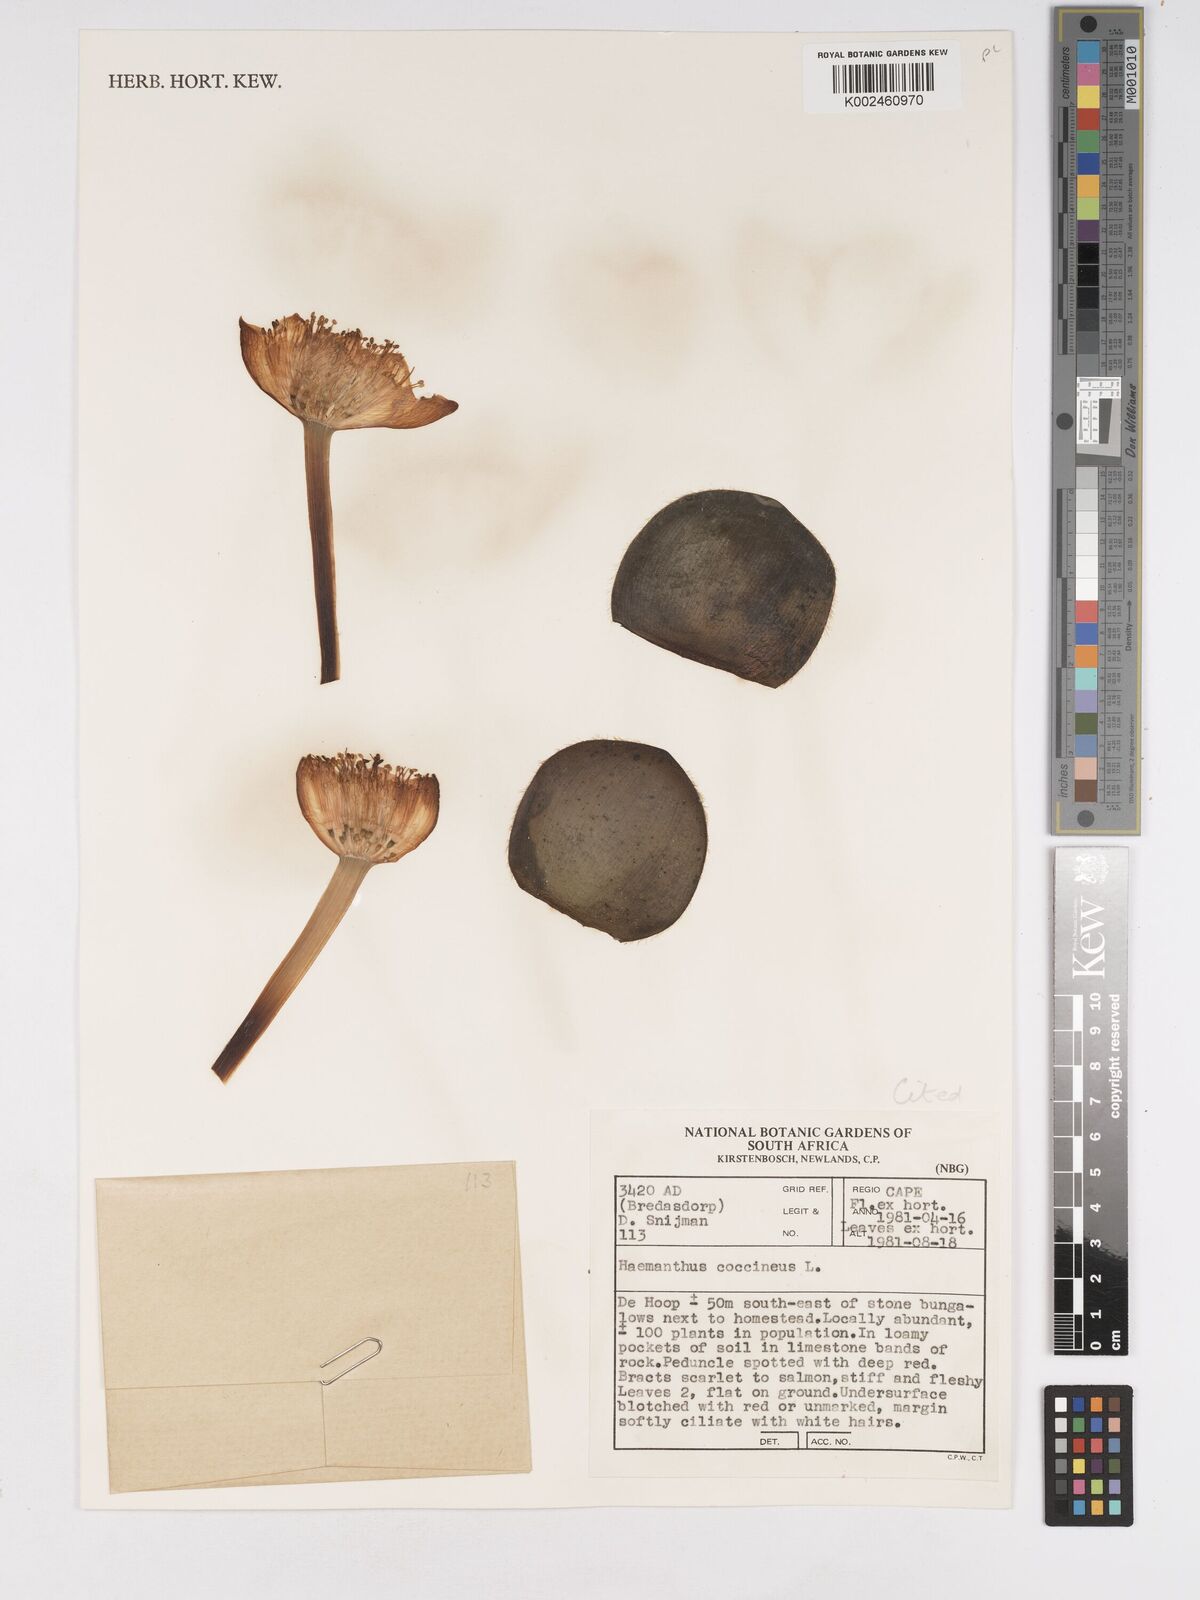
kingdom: Plantae
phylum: Tracheophyta
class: Liliopsida
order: Asparagales
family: Amaryllidaceae
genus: Haemanthus
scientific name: Haemanthus coccineus
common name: Cape-tulip
